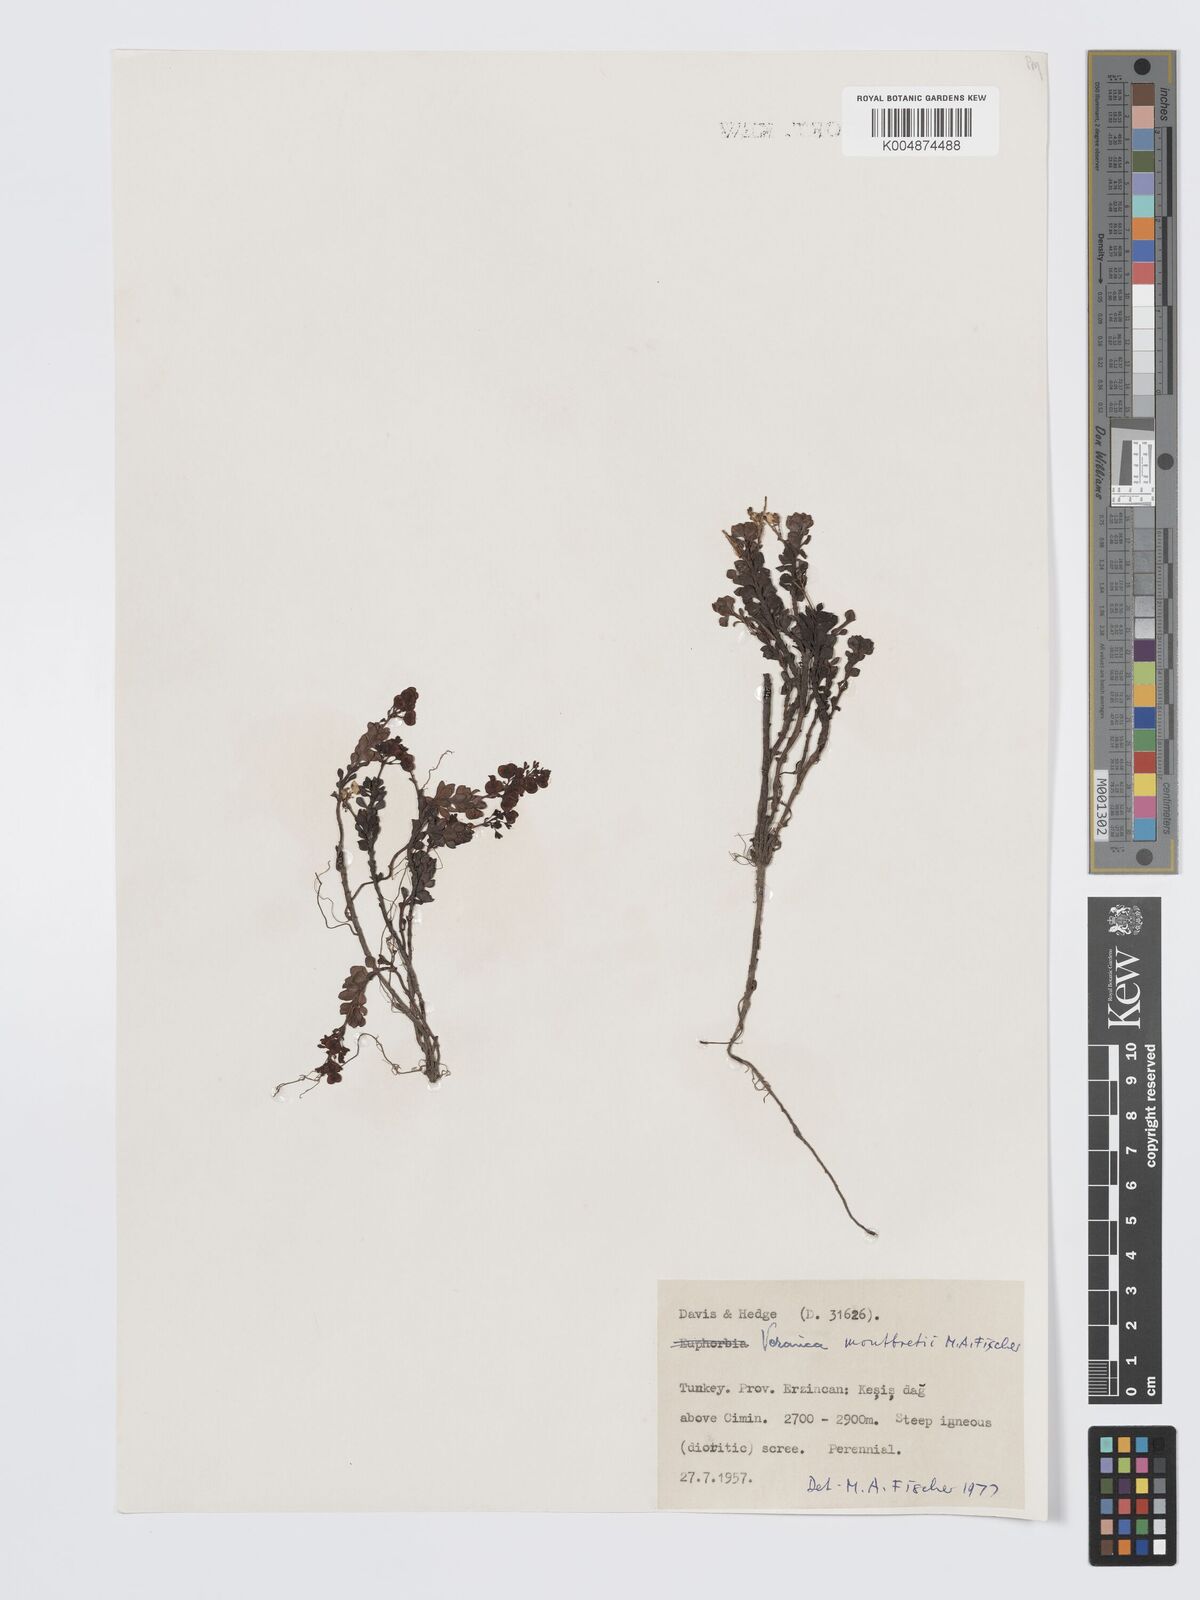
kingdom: Plantae
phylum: Tracheophyta
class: Magnoliopsida
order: Lamiales
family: Plantaginaceae
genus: Veronica
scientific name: Veronica montbretii
